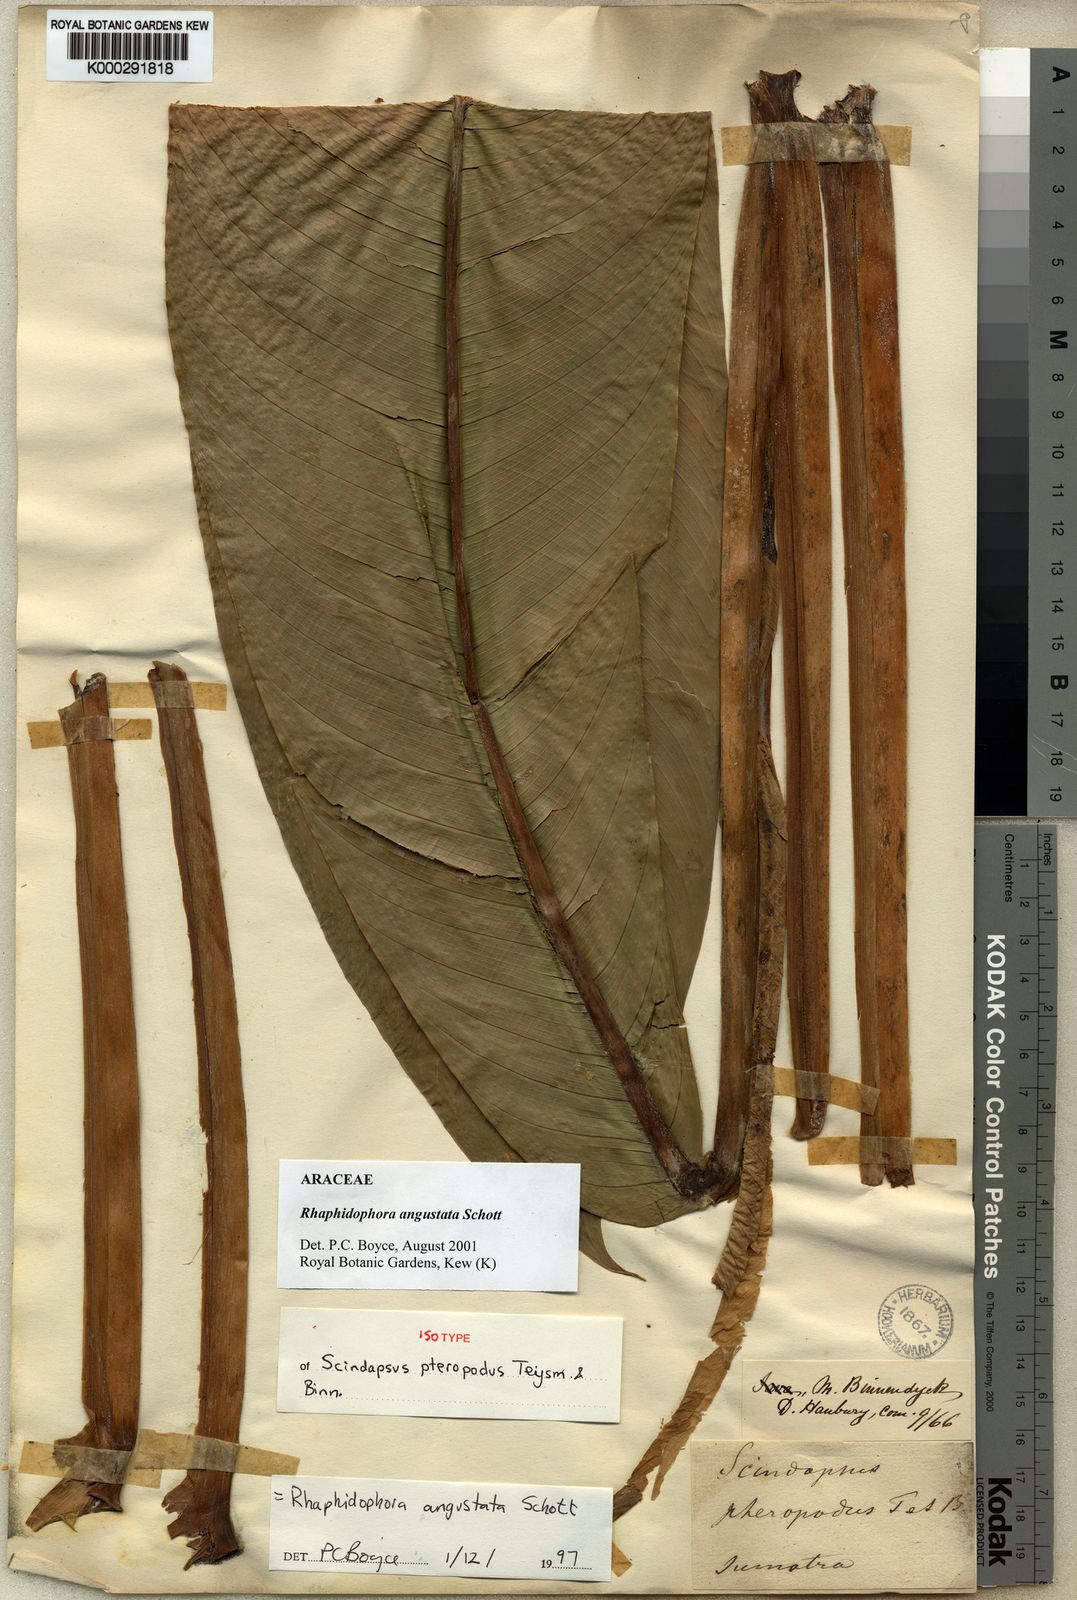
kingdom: Plantae
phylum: Tracheophyta
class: Liliopsida
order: Alismatales
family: Araceae
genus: Rhaphidophora
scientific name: Rhaphidophora angustata
